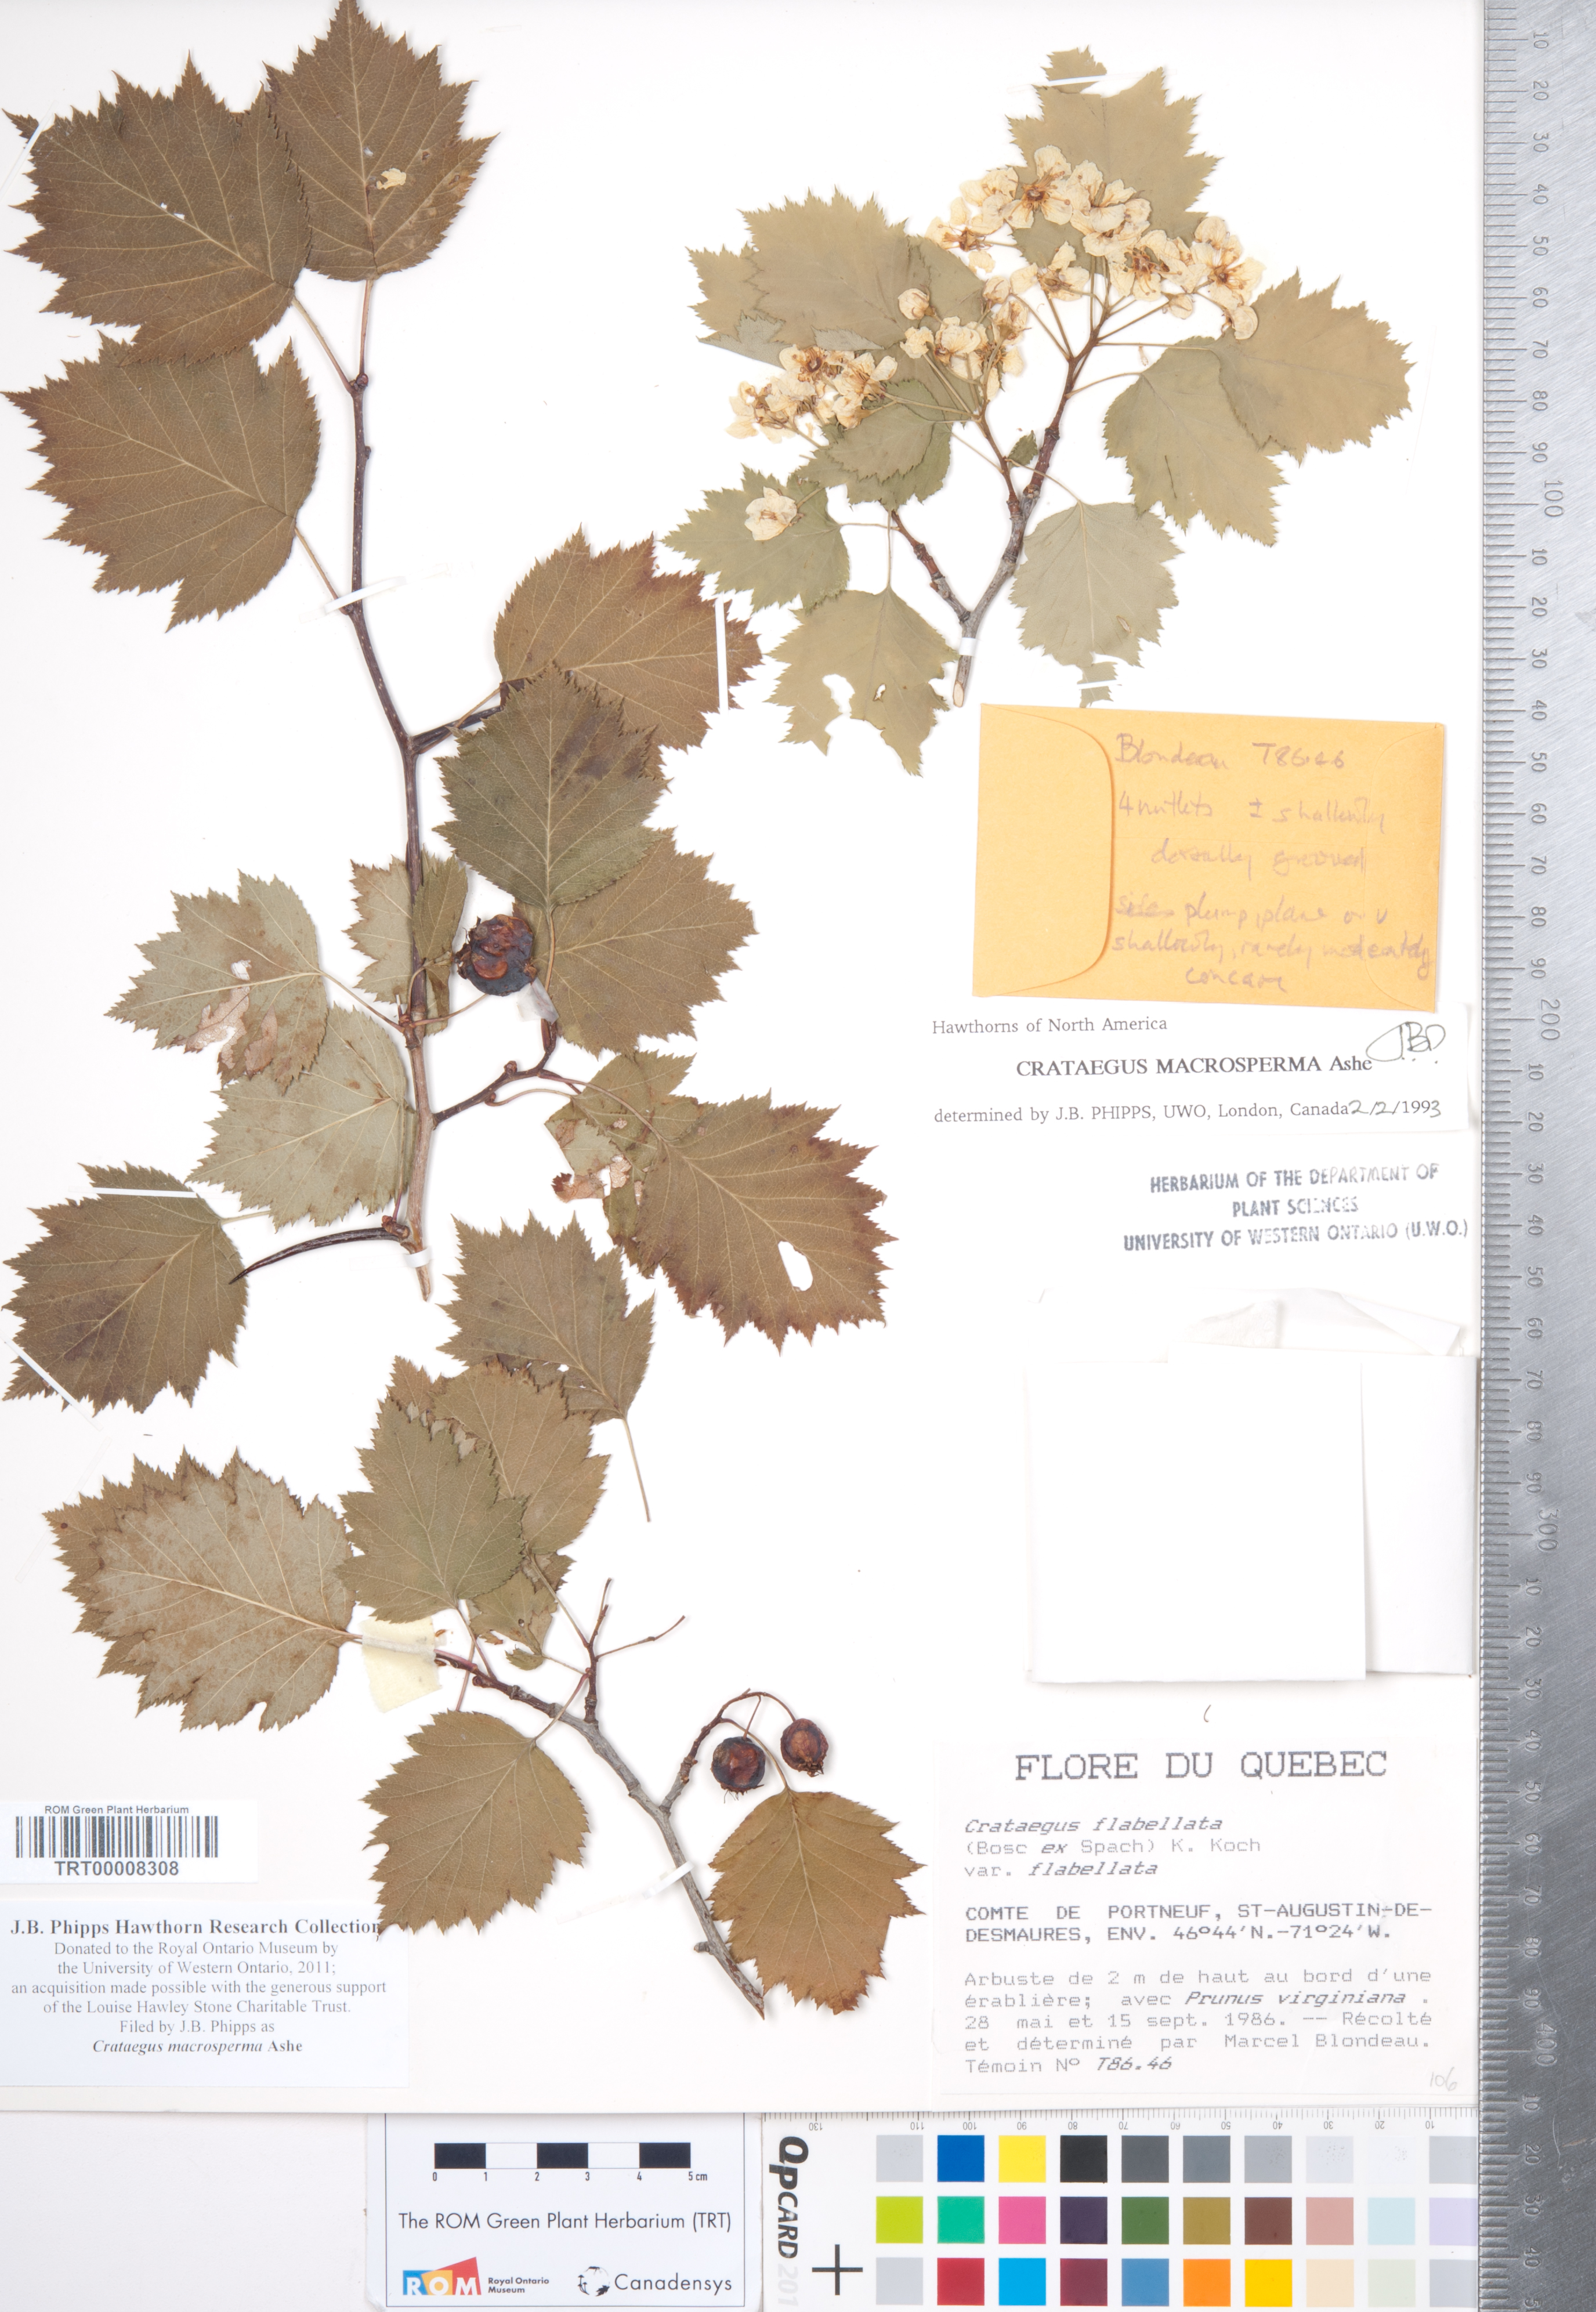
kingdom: Plantae
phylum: Tracheophyta
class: Magnoliopsida
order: Rosales
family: Rosaceae
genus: Crataegus
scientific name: Crataegus macrosperma
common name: Variable hawthorn
